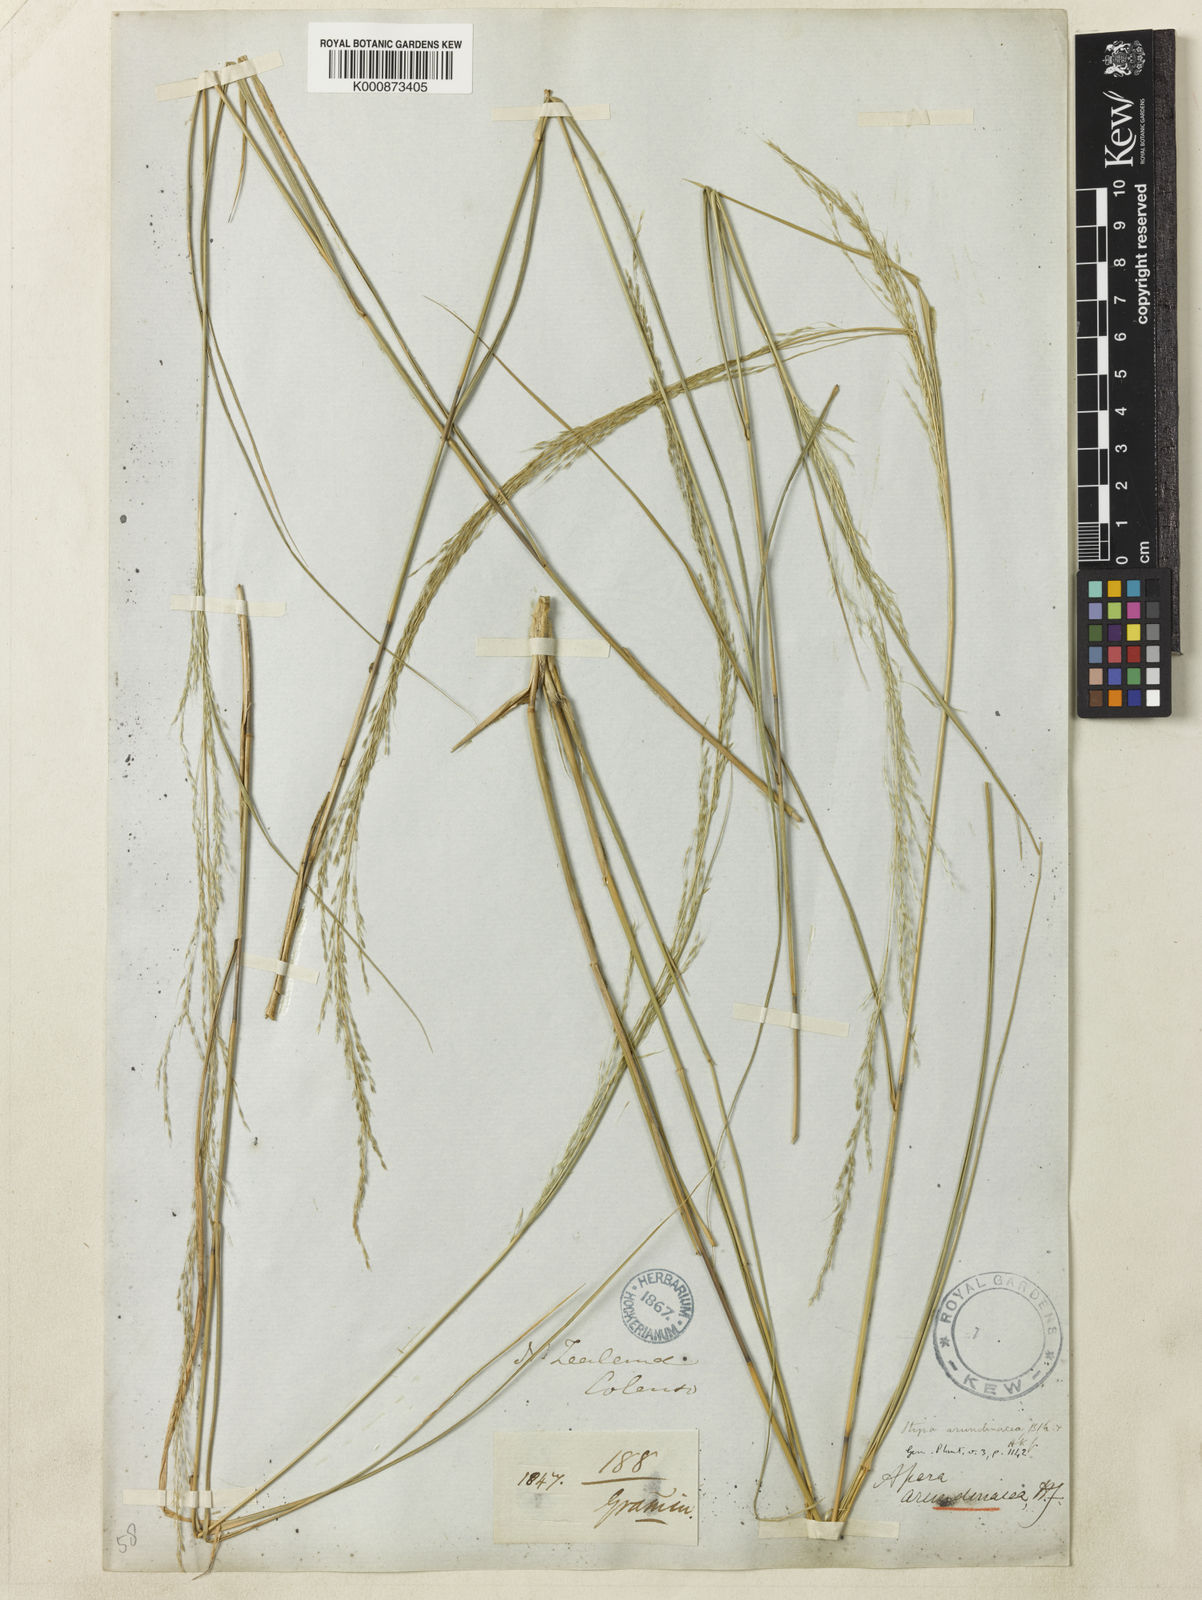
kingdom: Plantae
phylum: Tracheophyta
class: Liliopsida
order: Poales
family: Poaceae
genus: Stipa
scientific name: Stipa
